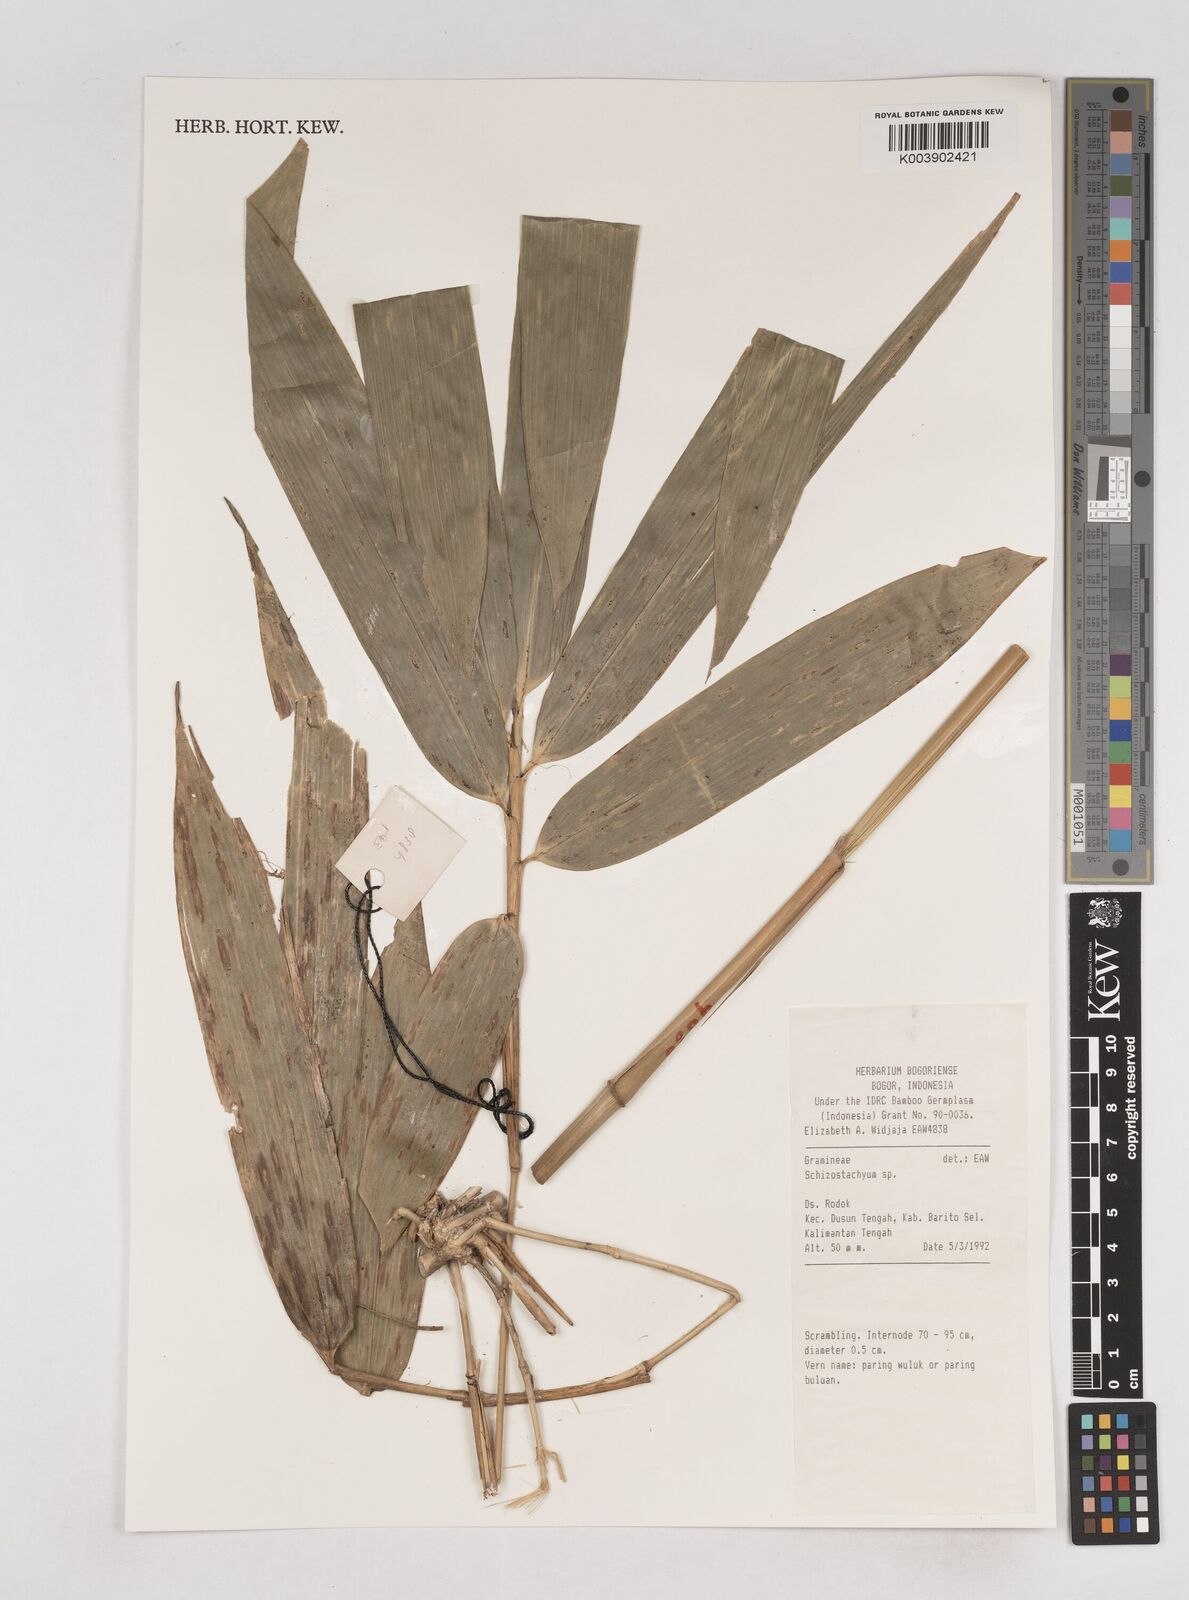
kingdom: Plantae
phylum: Tracheophyta
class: Liliopsida
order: Poales
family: Poaceae
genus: Schizostachyum
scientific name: Schizostachyum
